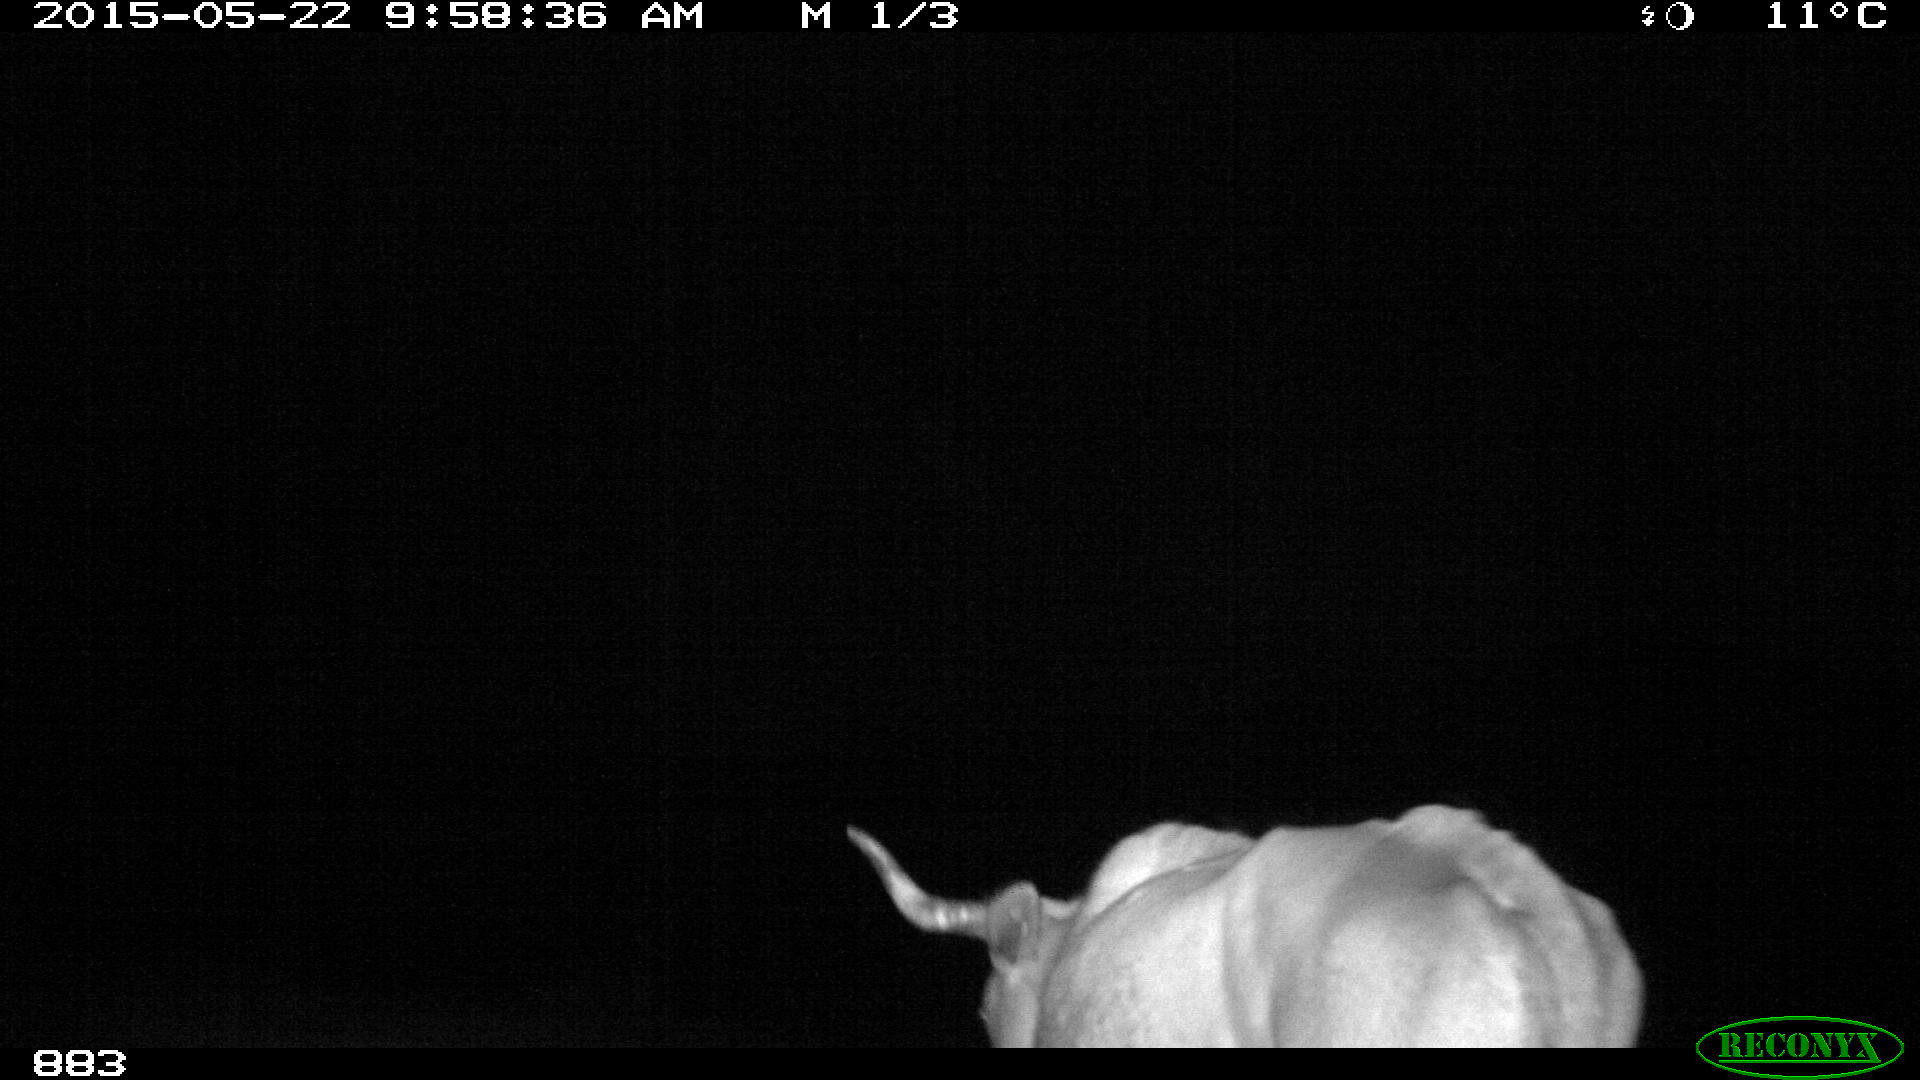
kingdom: Animalia
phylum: Chordata
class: Mammalia
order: Artiodactyla
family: Bovidae
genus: Bos
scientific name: Bos taurus
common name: Domesticated cattle
